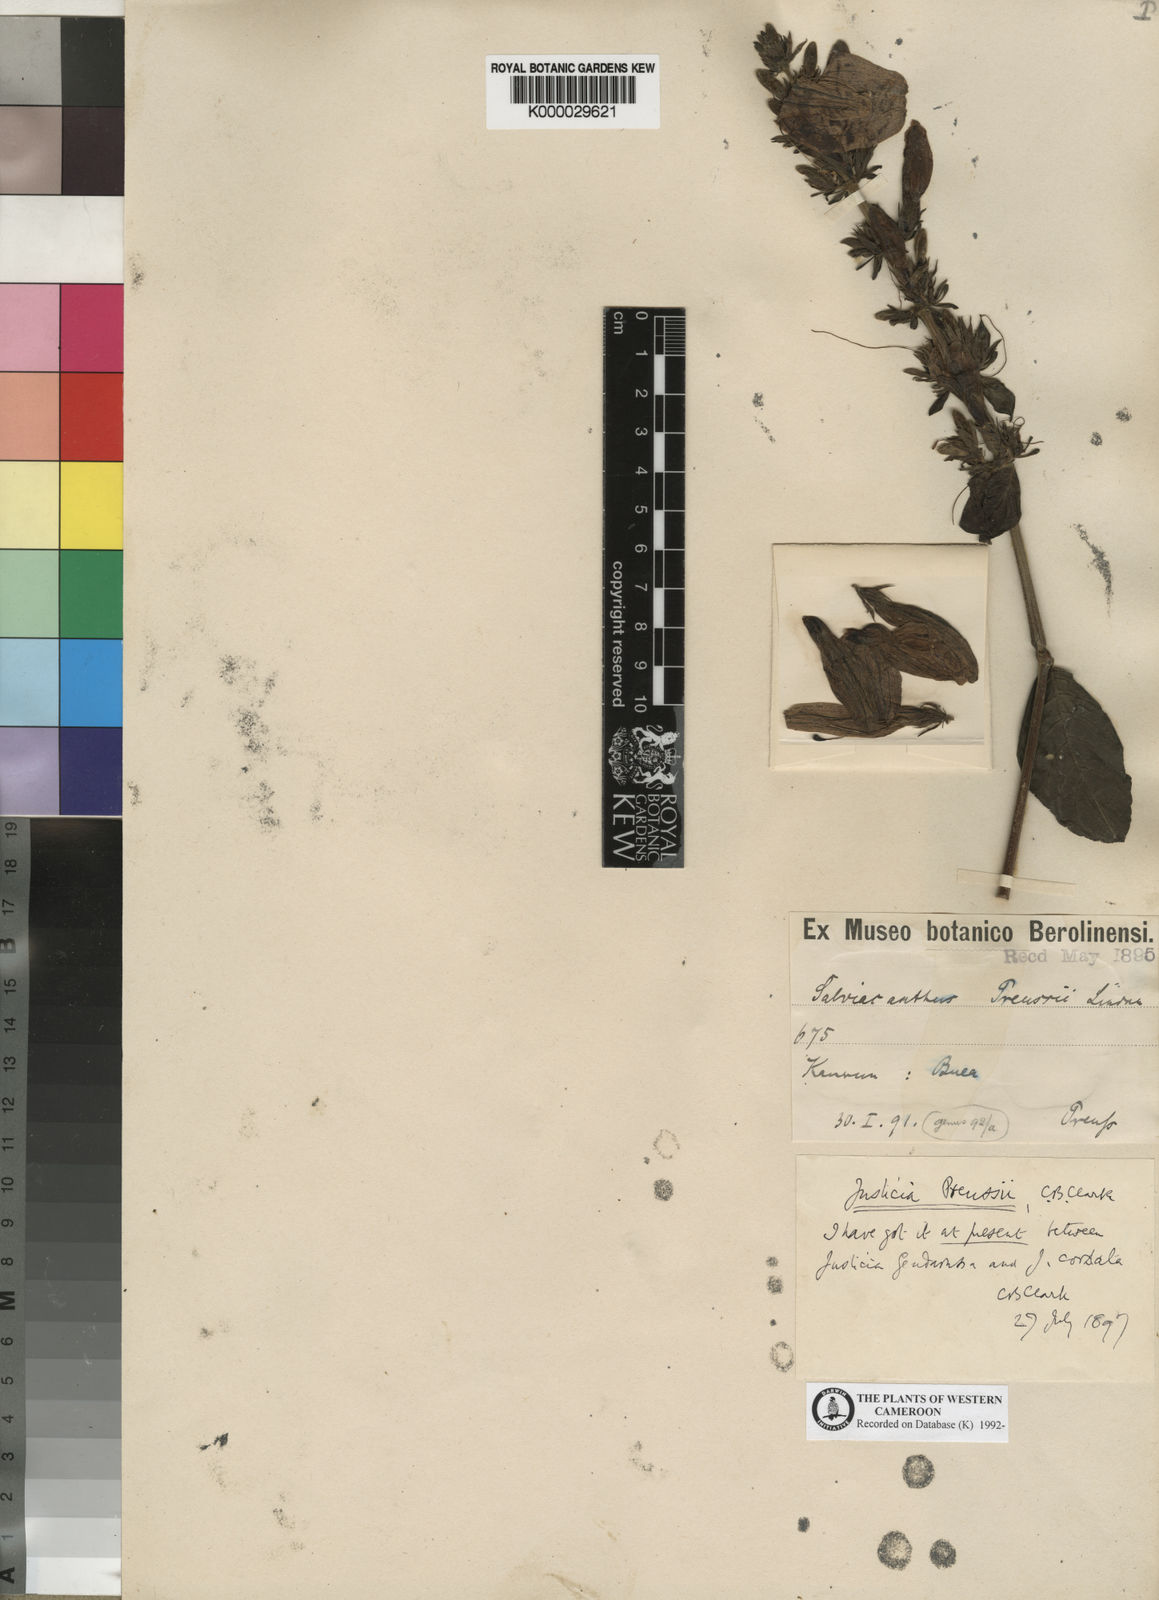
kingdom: Plantae
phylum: Tracheophyta
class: Magnoliopsida
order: Lamiales
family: Acanthaceae
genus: Justicia
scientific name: Justicia preussii
